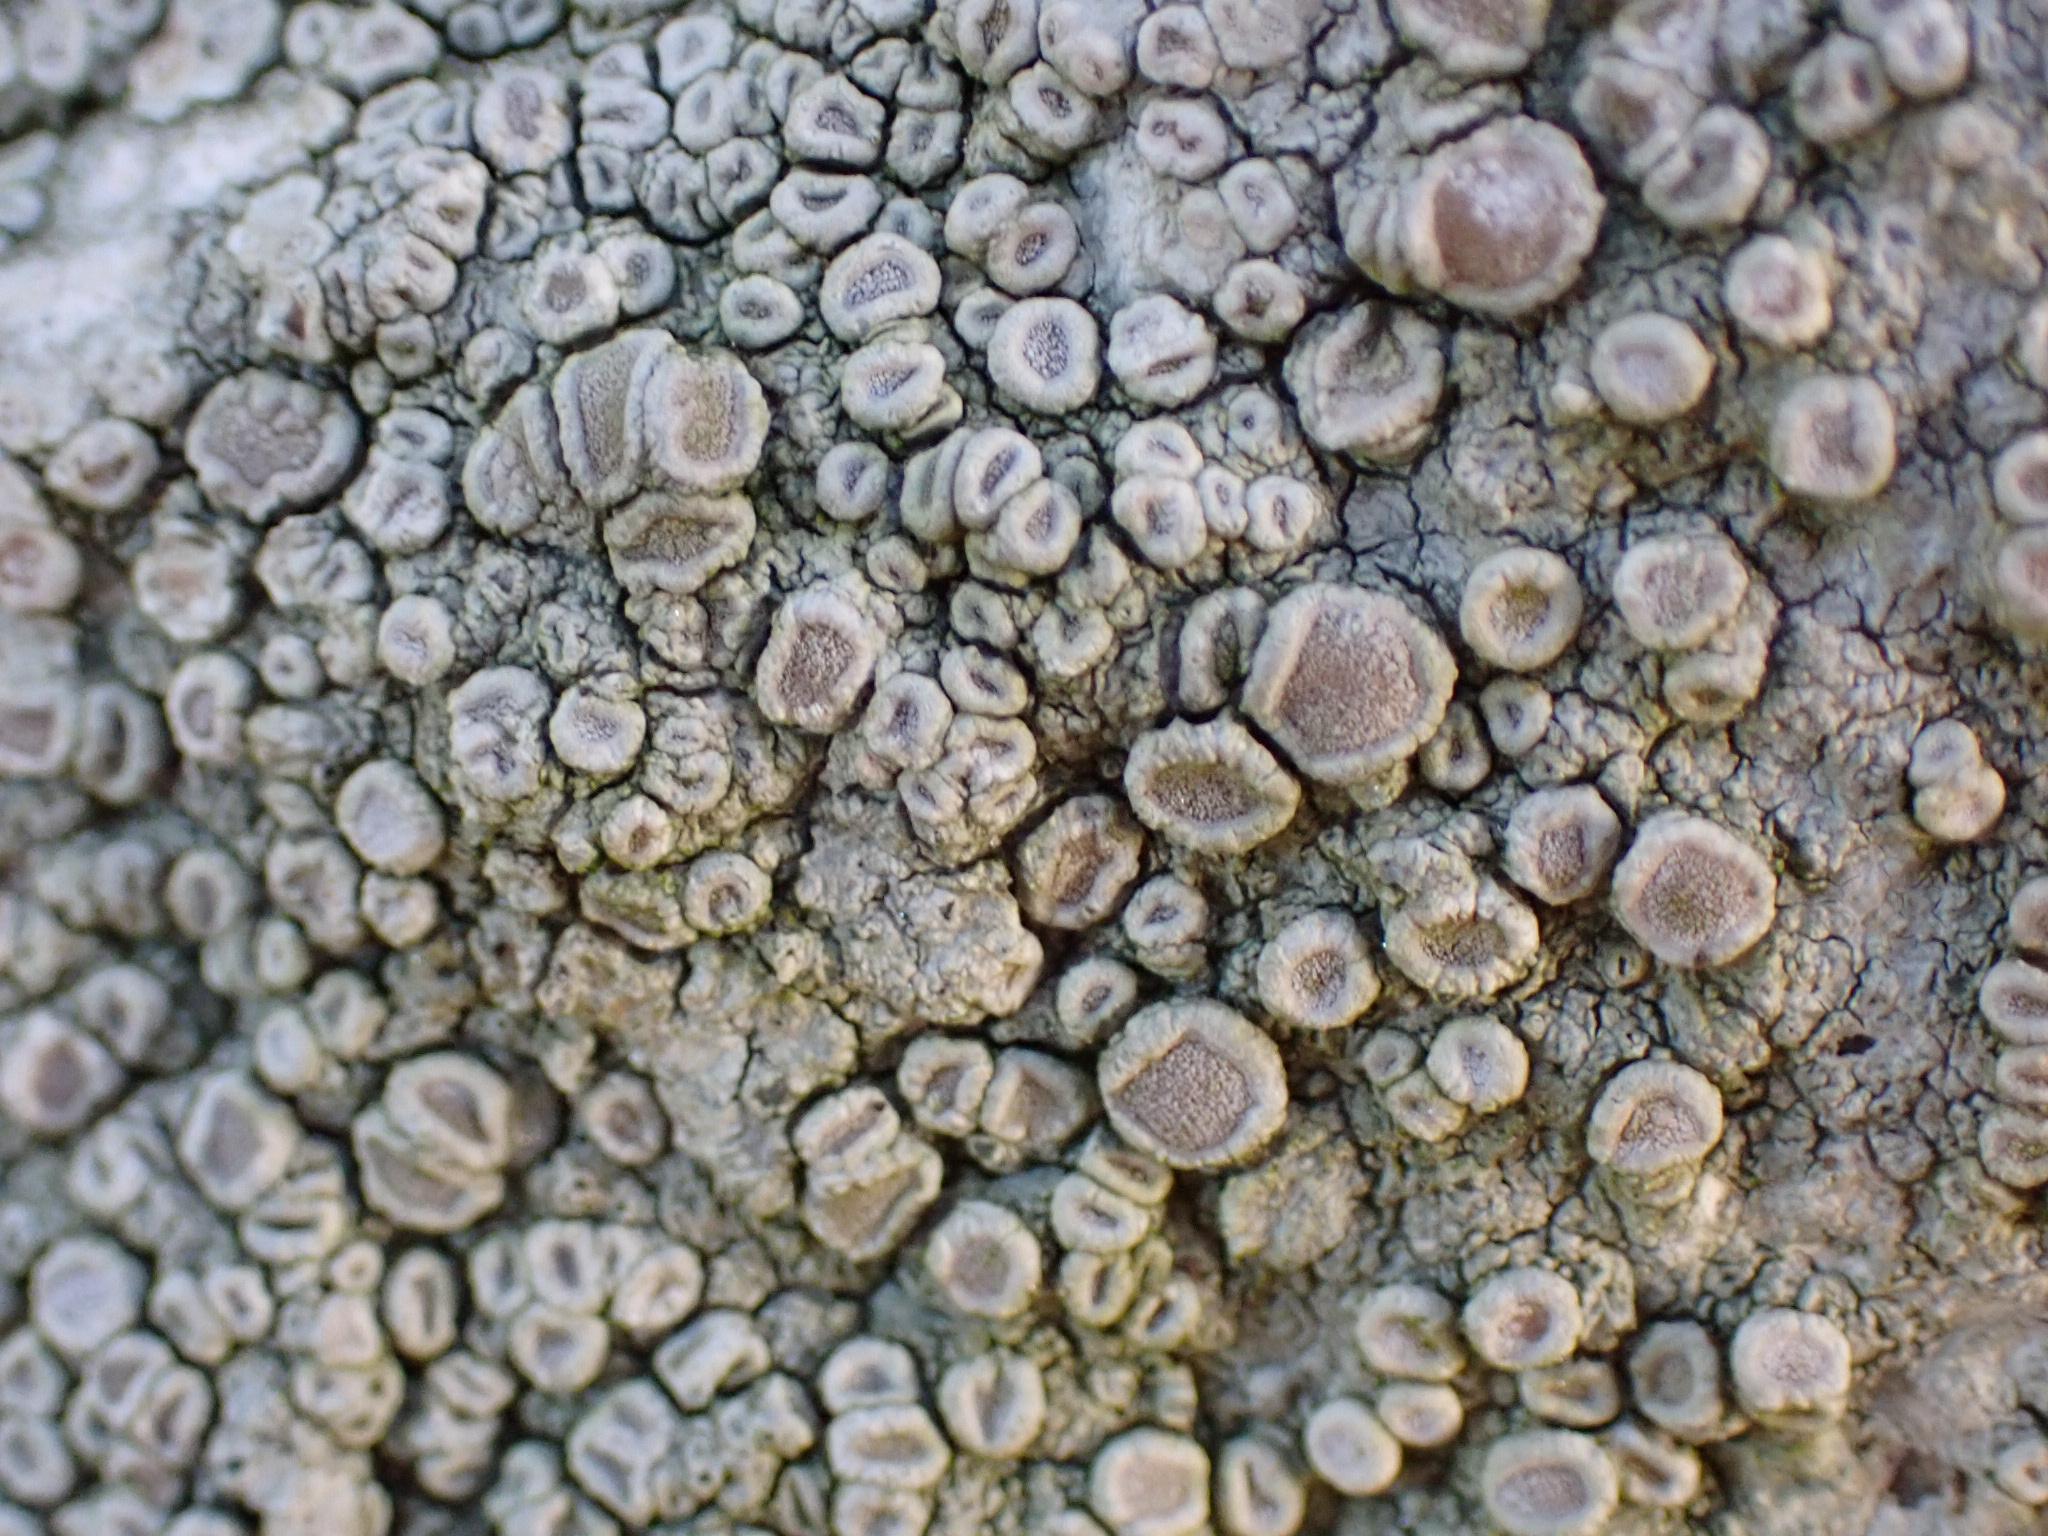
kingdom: Fungi
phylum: Ascomycota
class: Lecanoromycetes
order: Pertusariales
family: Ochrolechiaceae
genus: Ochrolechia
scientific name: Ochrolechia parella
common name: almindelig blegskivelav
